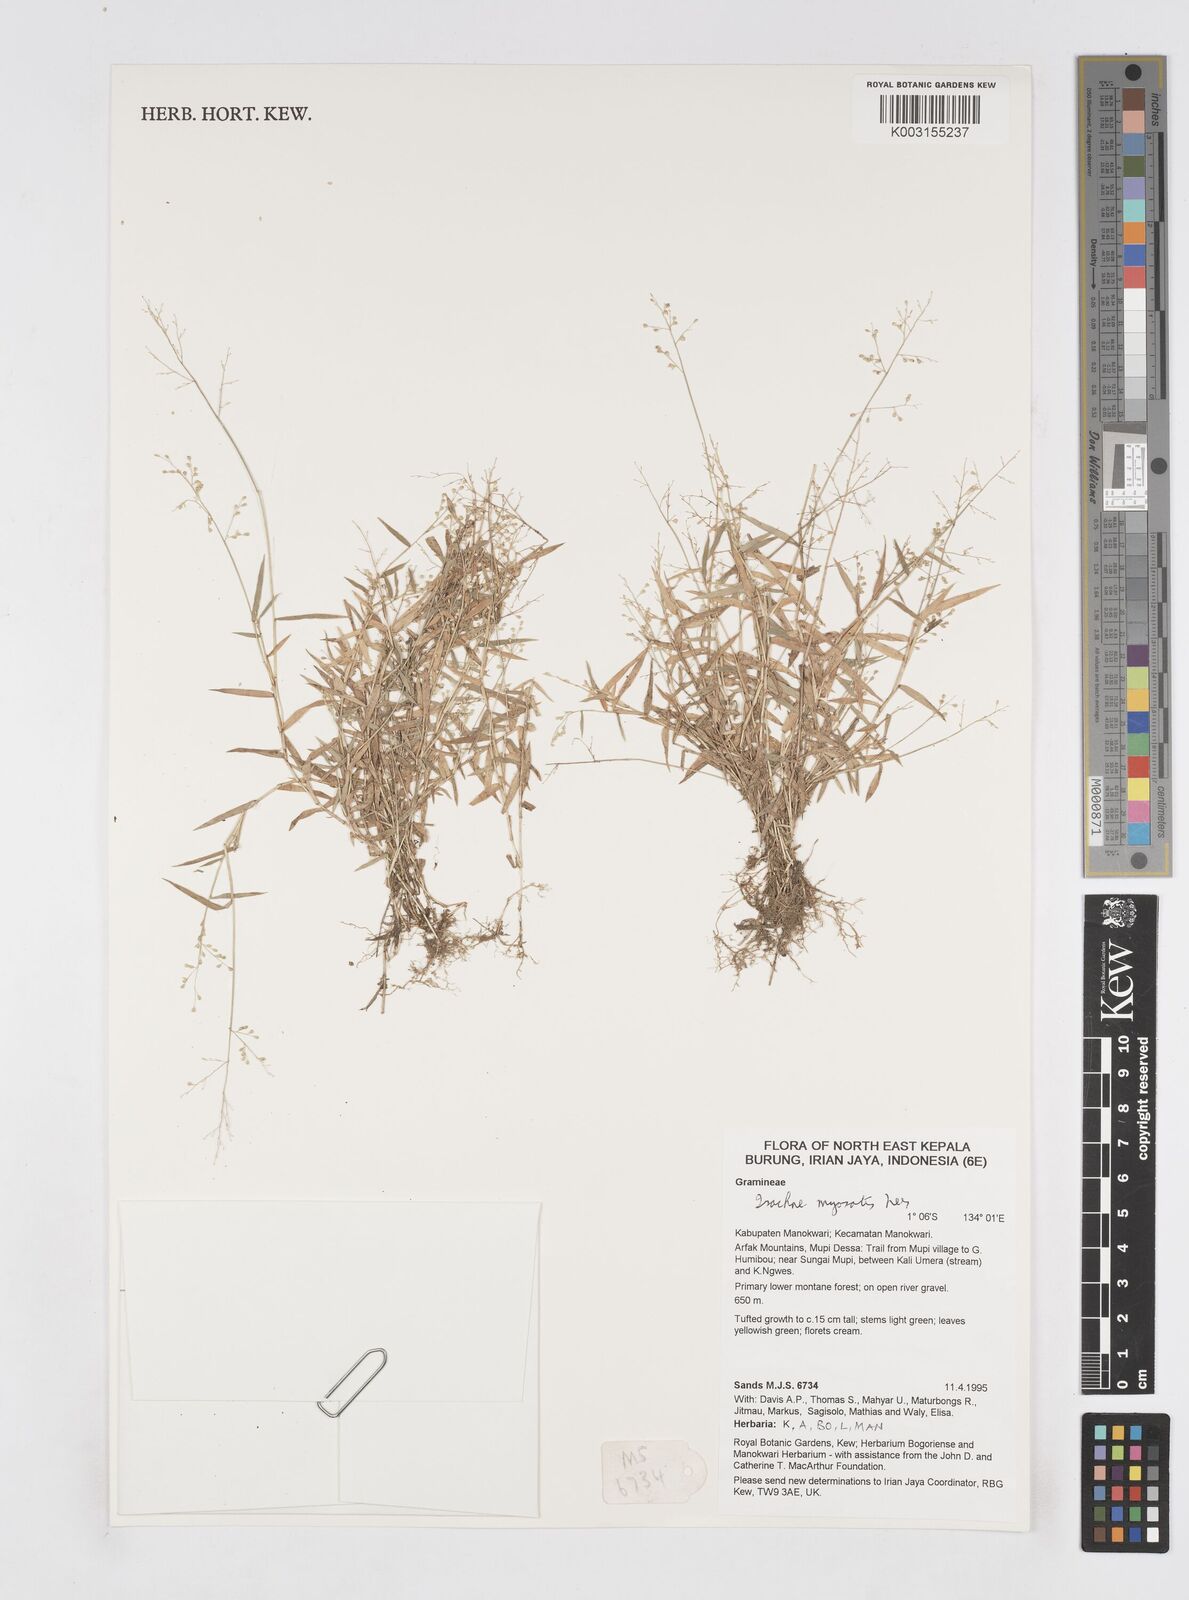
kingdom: Plantae
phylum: Tracheophyta
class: Liliopsida
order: Poales
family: Poaceae
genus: Isachne
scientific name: Isachne myosotis
